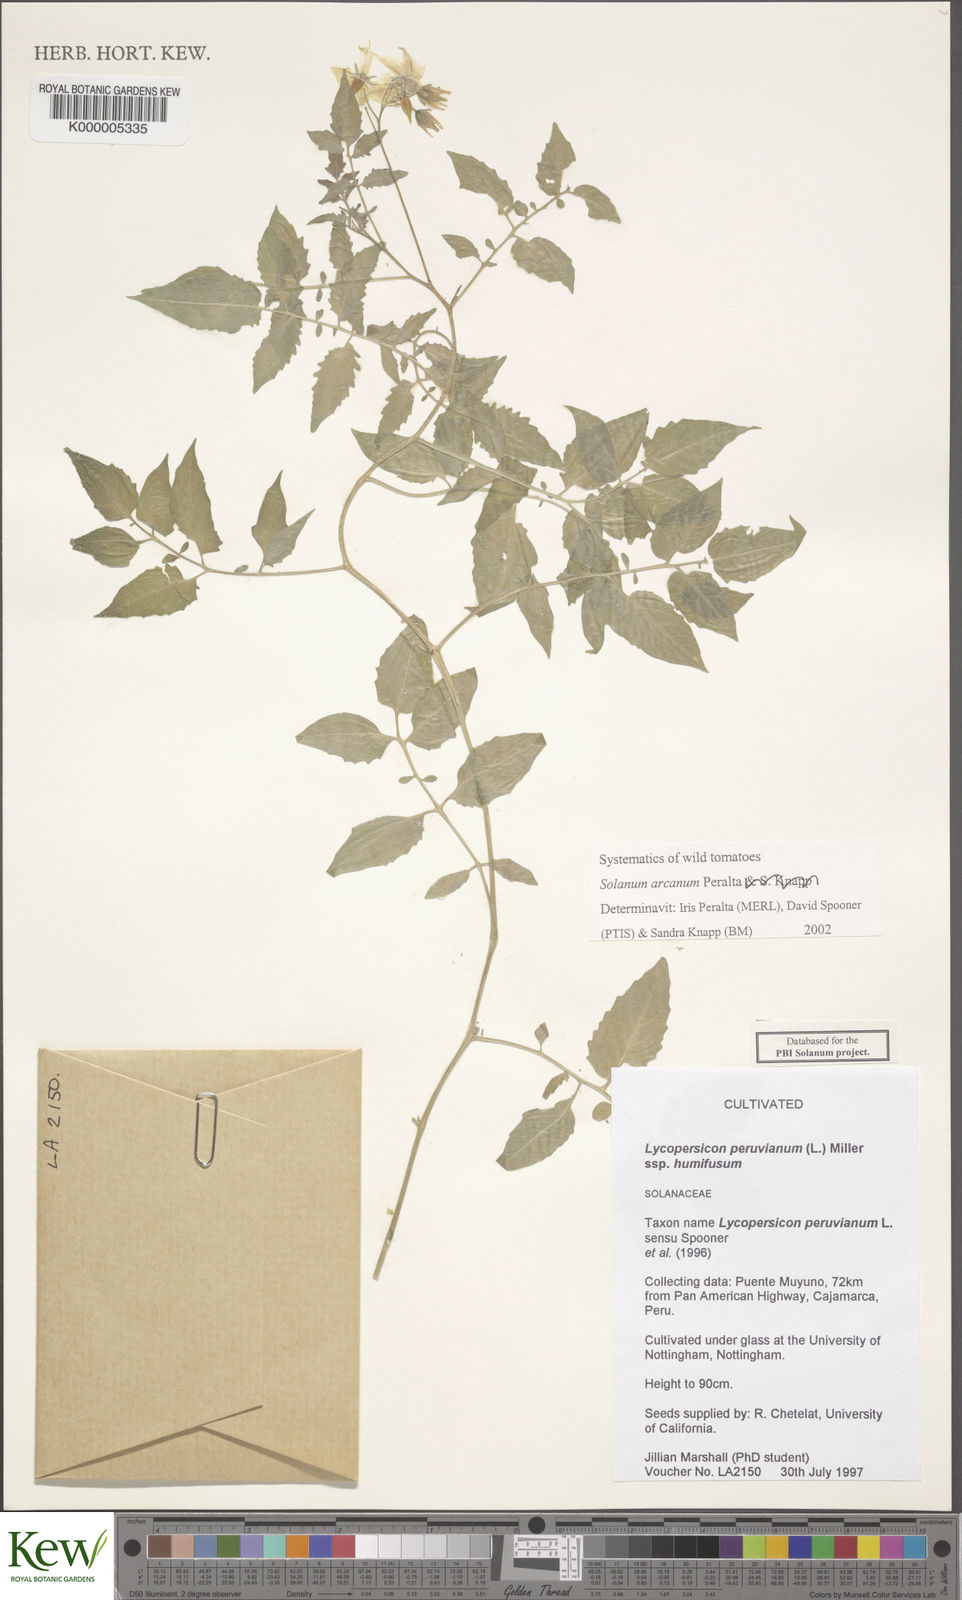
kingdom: Plantae
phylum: Tracheophyta
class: Magnoliopsida
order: Solanales
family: Solanaceae
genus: Solanum
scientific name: Solanum arcanum
